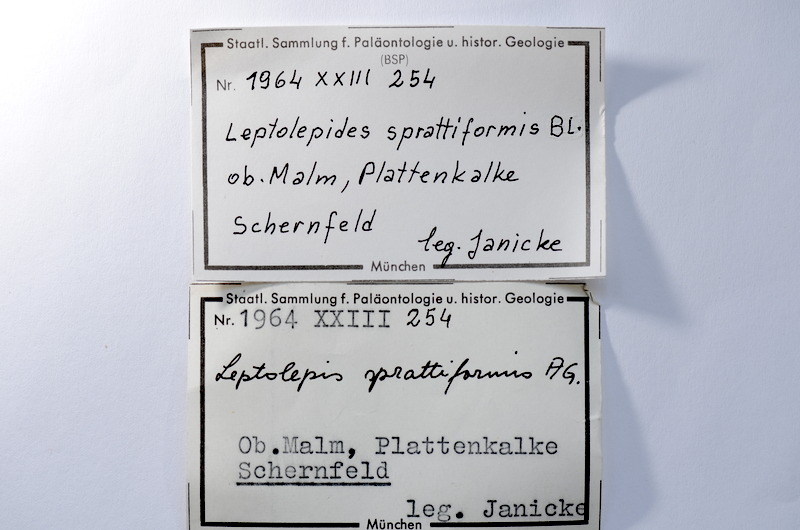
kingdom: Animalia
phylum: Chordata
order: Salmoniformes
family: Orthogonikleithridae
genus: Leptolepides
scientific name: Leptolepides sprattiformis
